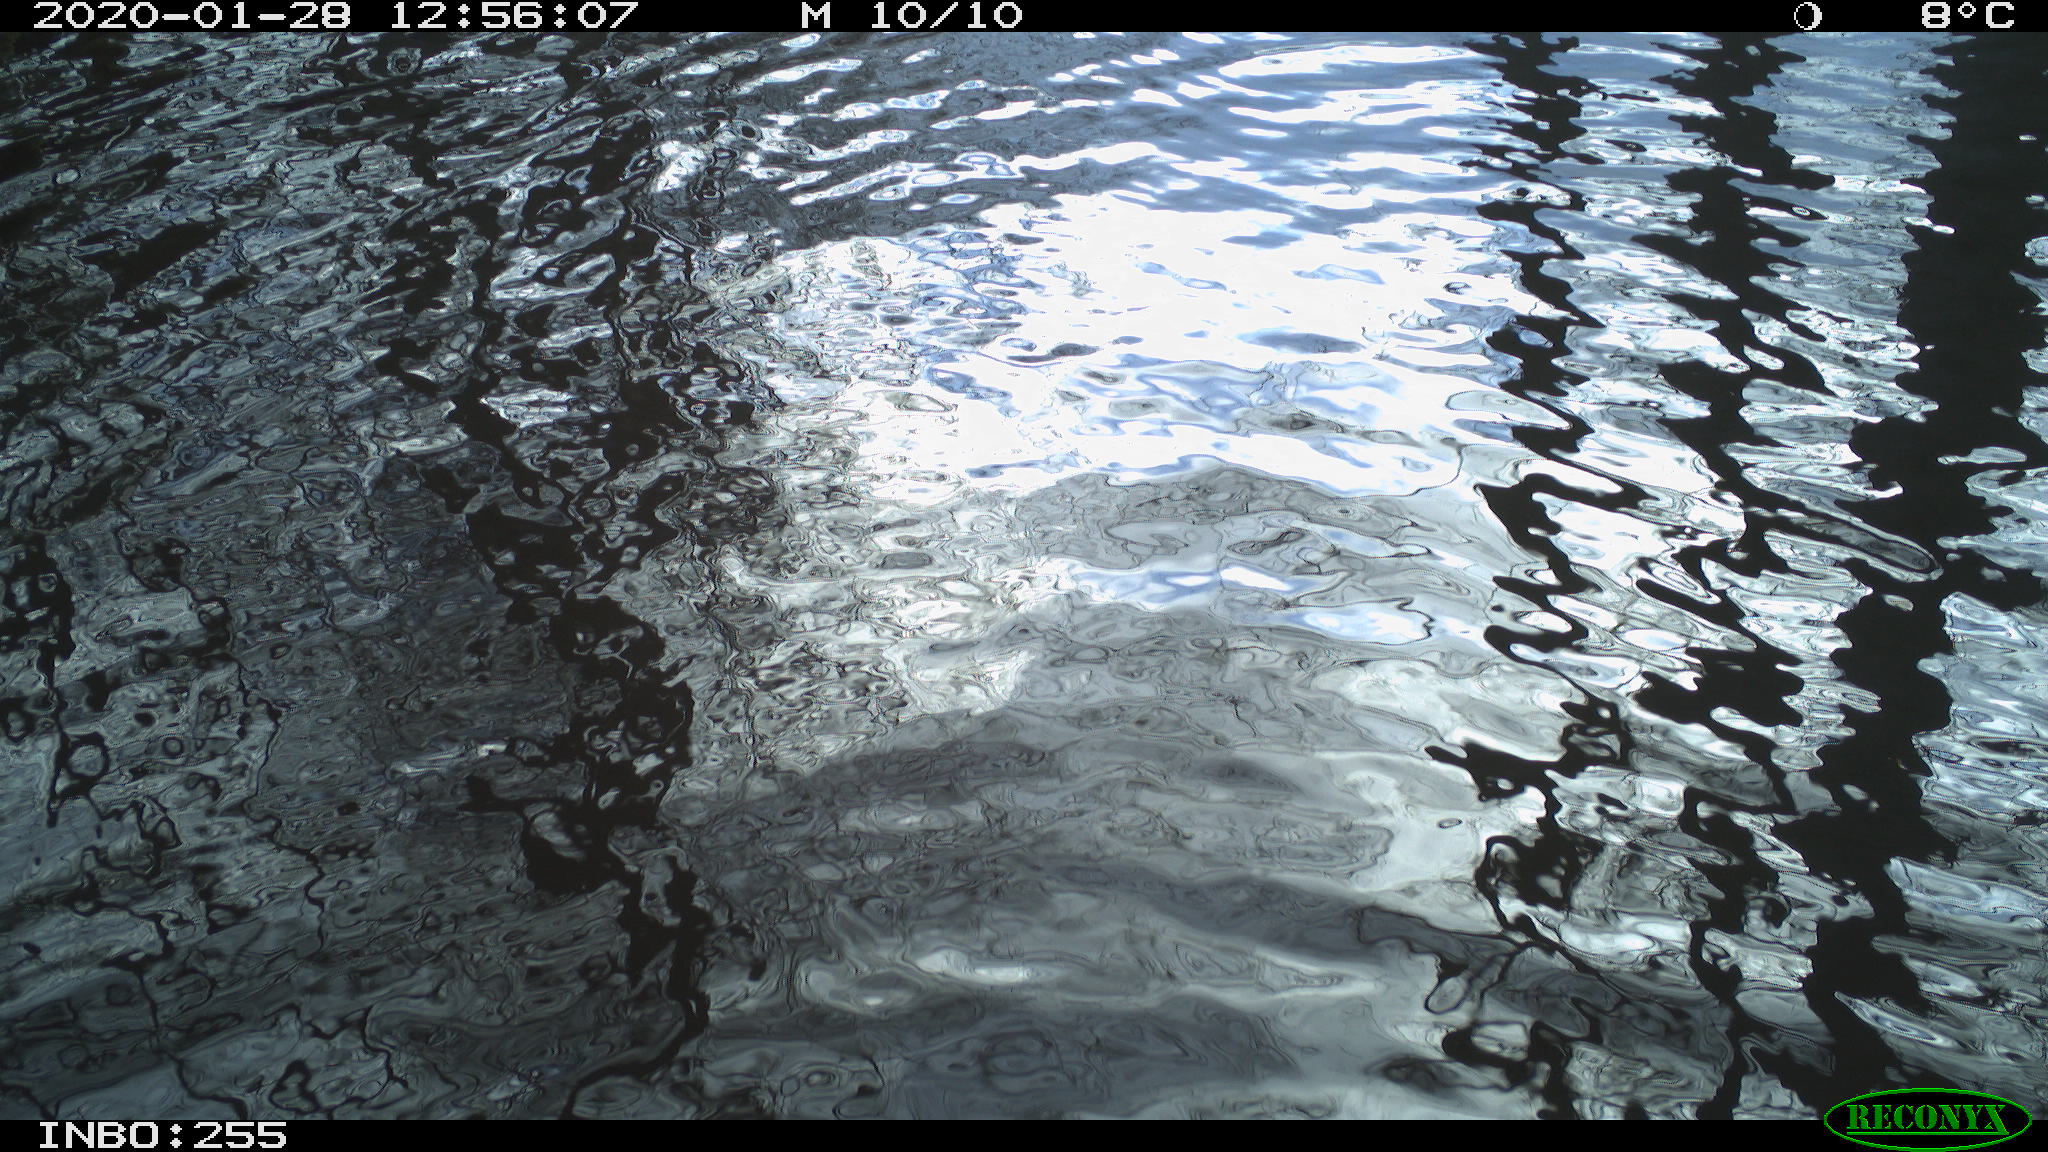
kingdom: Animalia
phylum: Chordata
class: Aves
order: Gruiformes
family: Rallidae
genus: Fulica
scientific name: Fulica atra
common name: Eurasian coot
